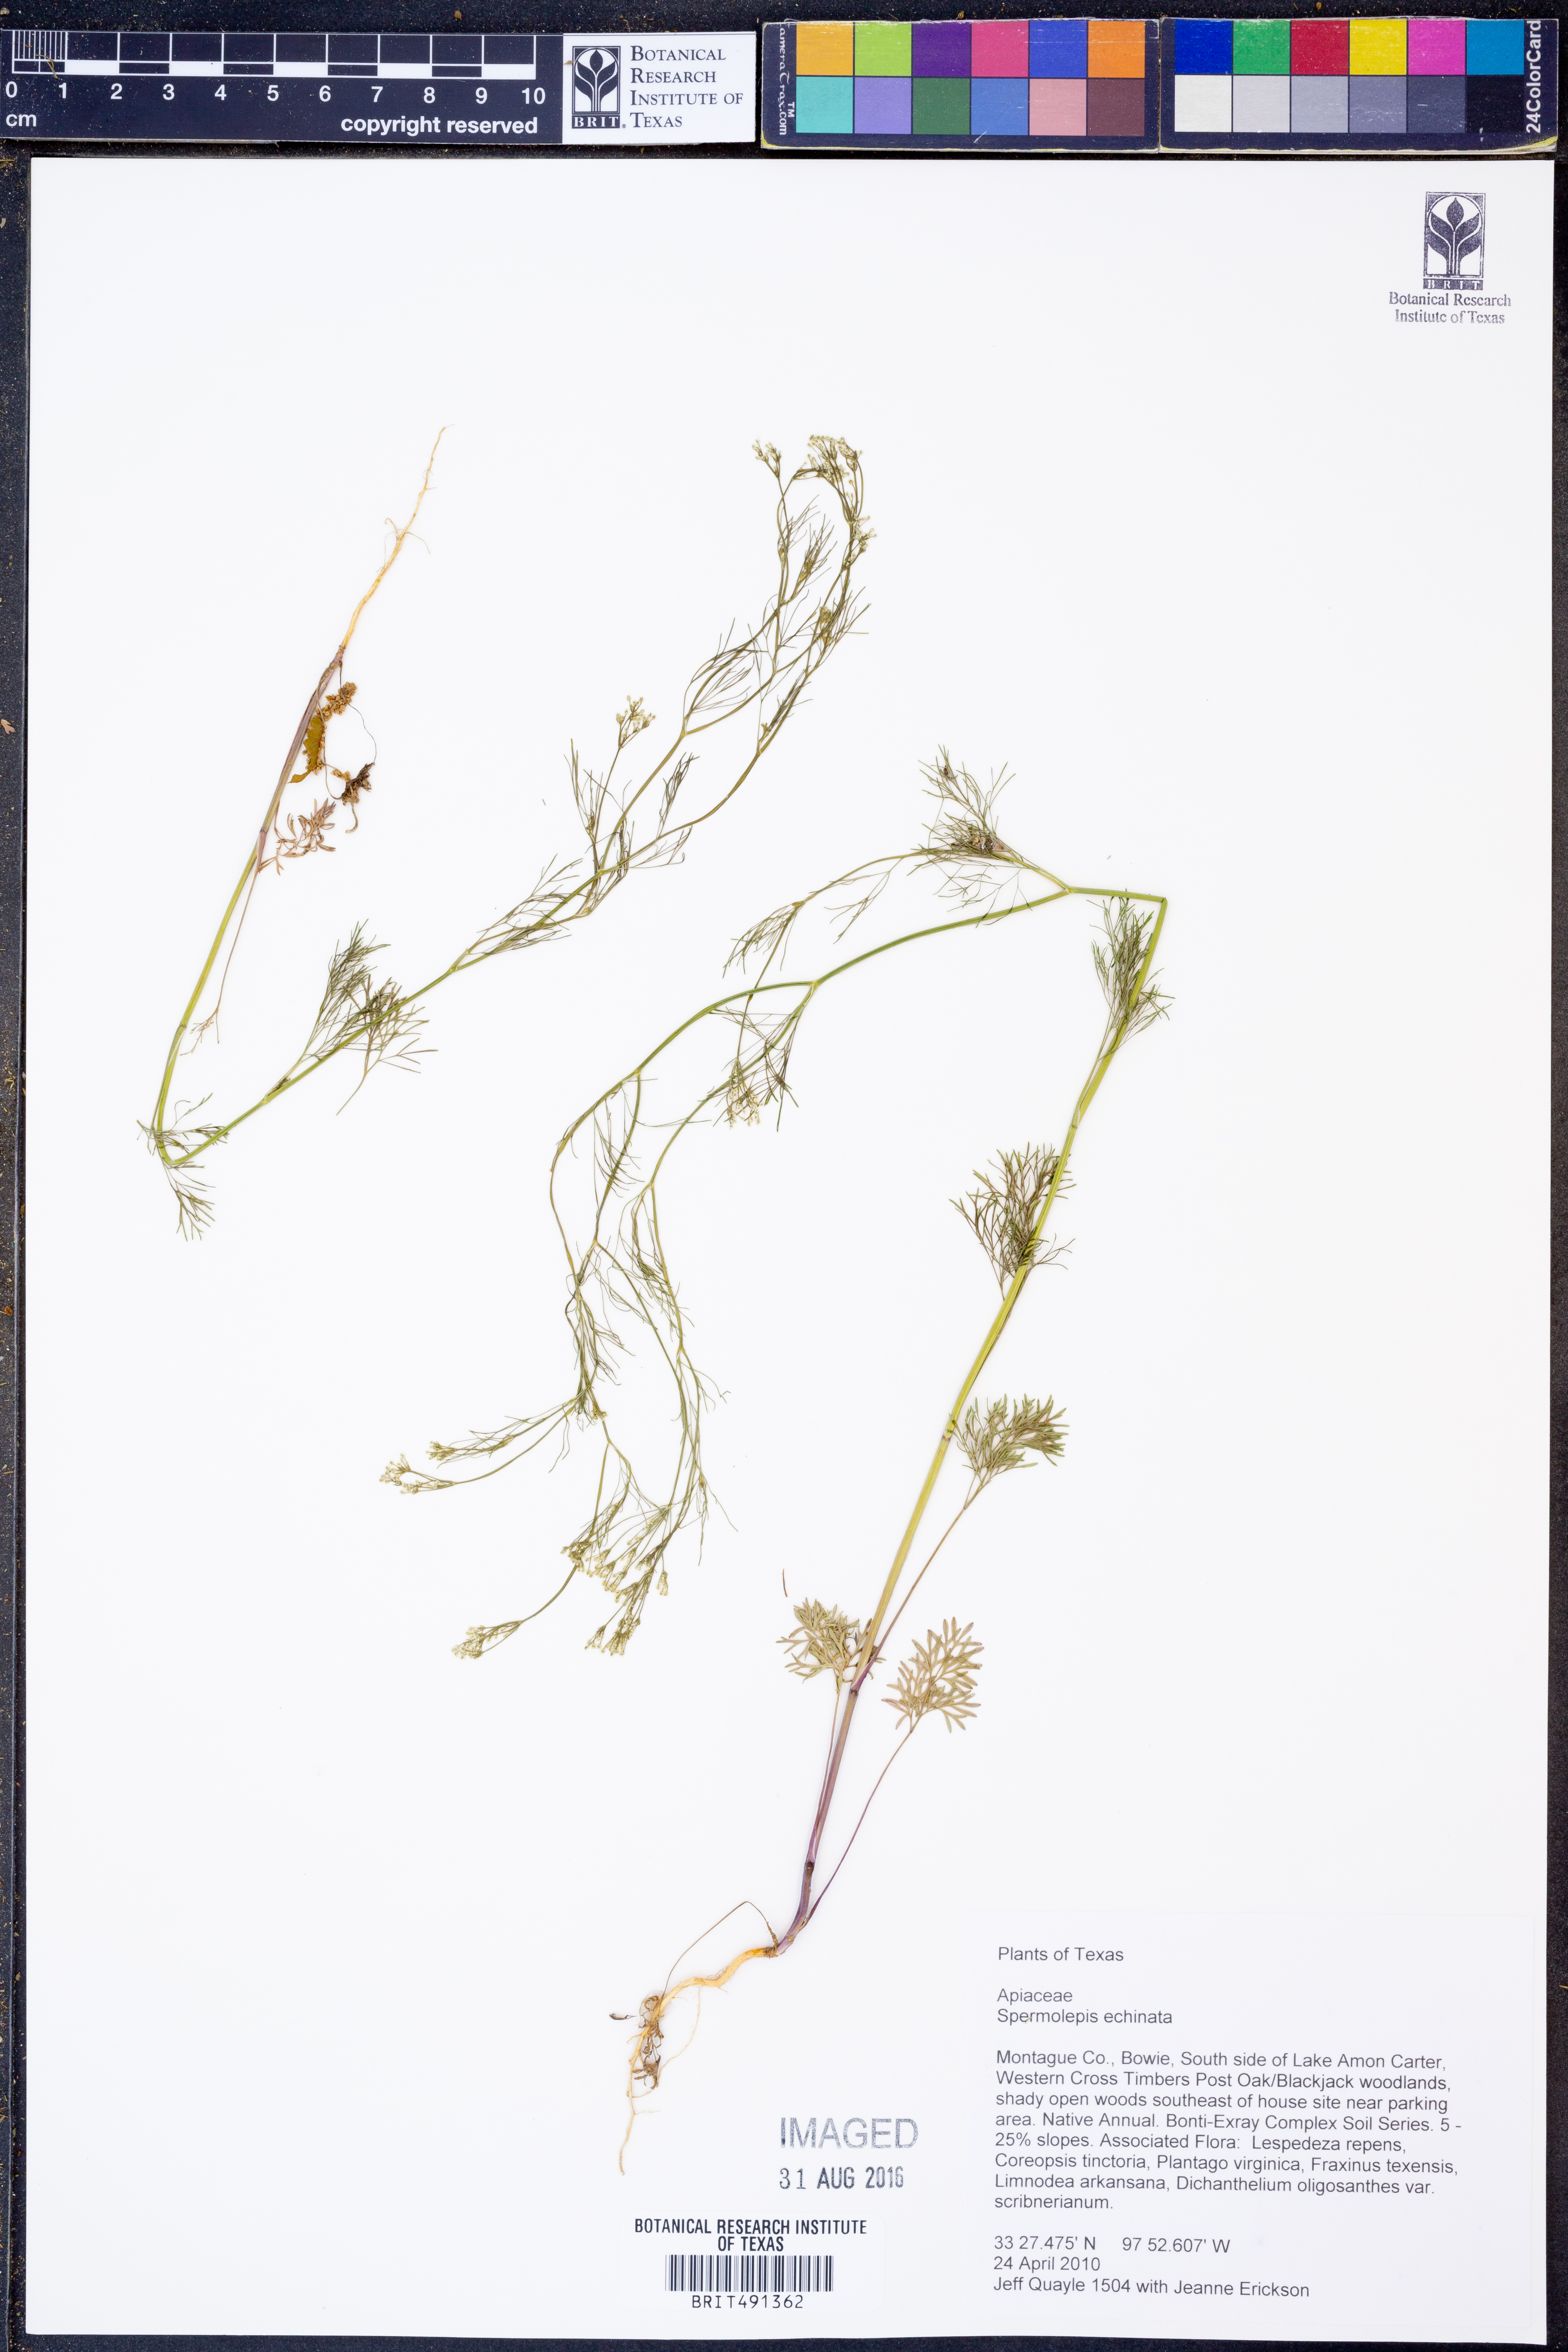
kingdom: Plantae
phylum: Tracheophyta
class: Magnoliopsida
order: Apiales
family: Apiaceae
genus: Spermolepis
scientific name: Spermolepis echinata
